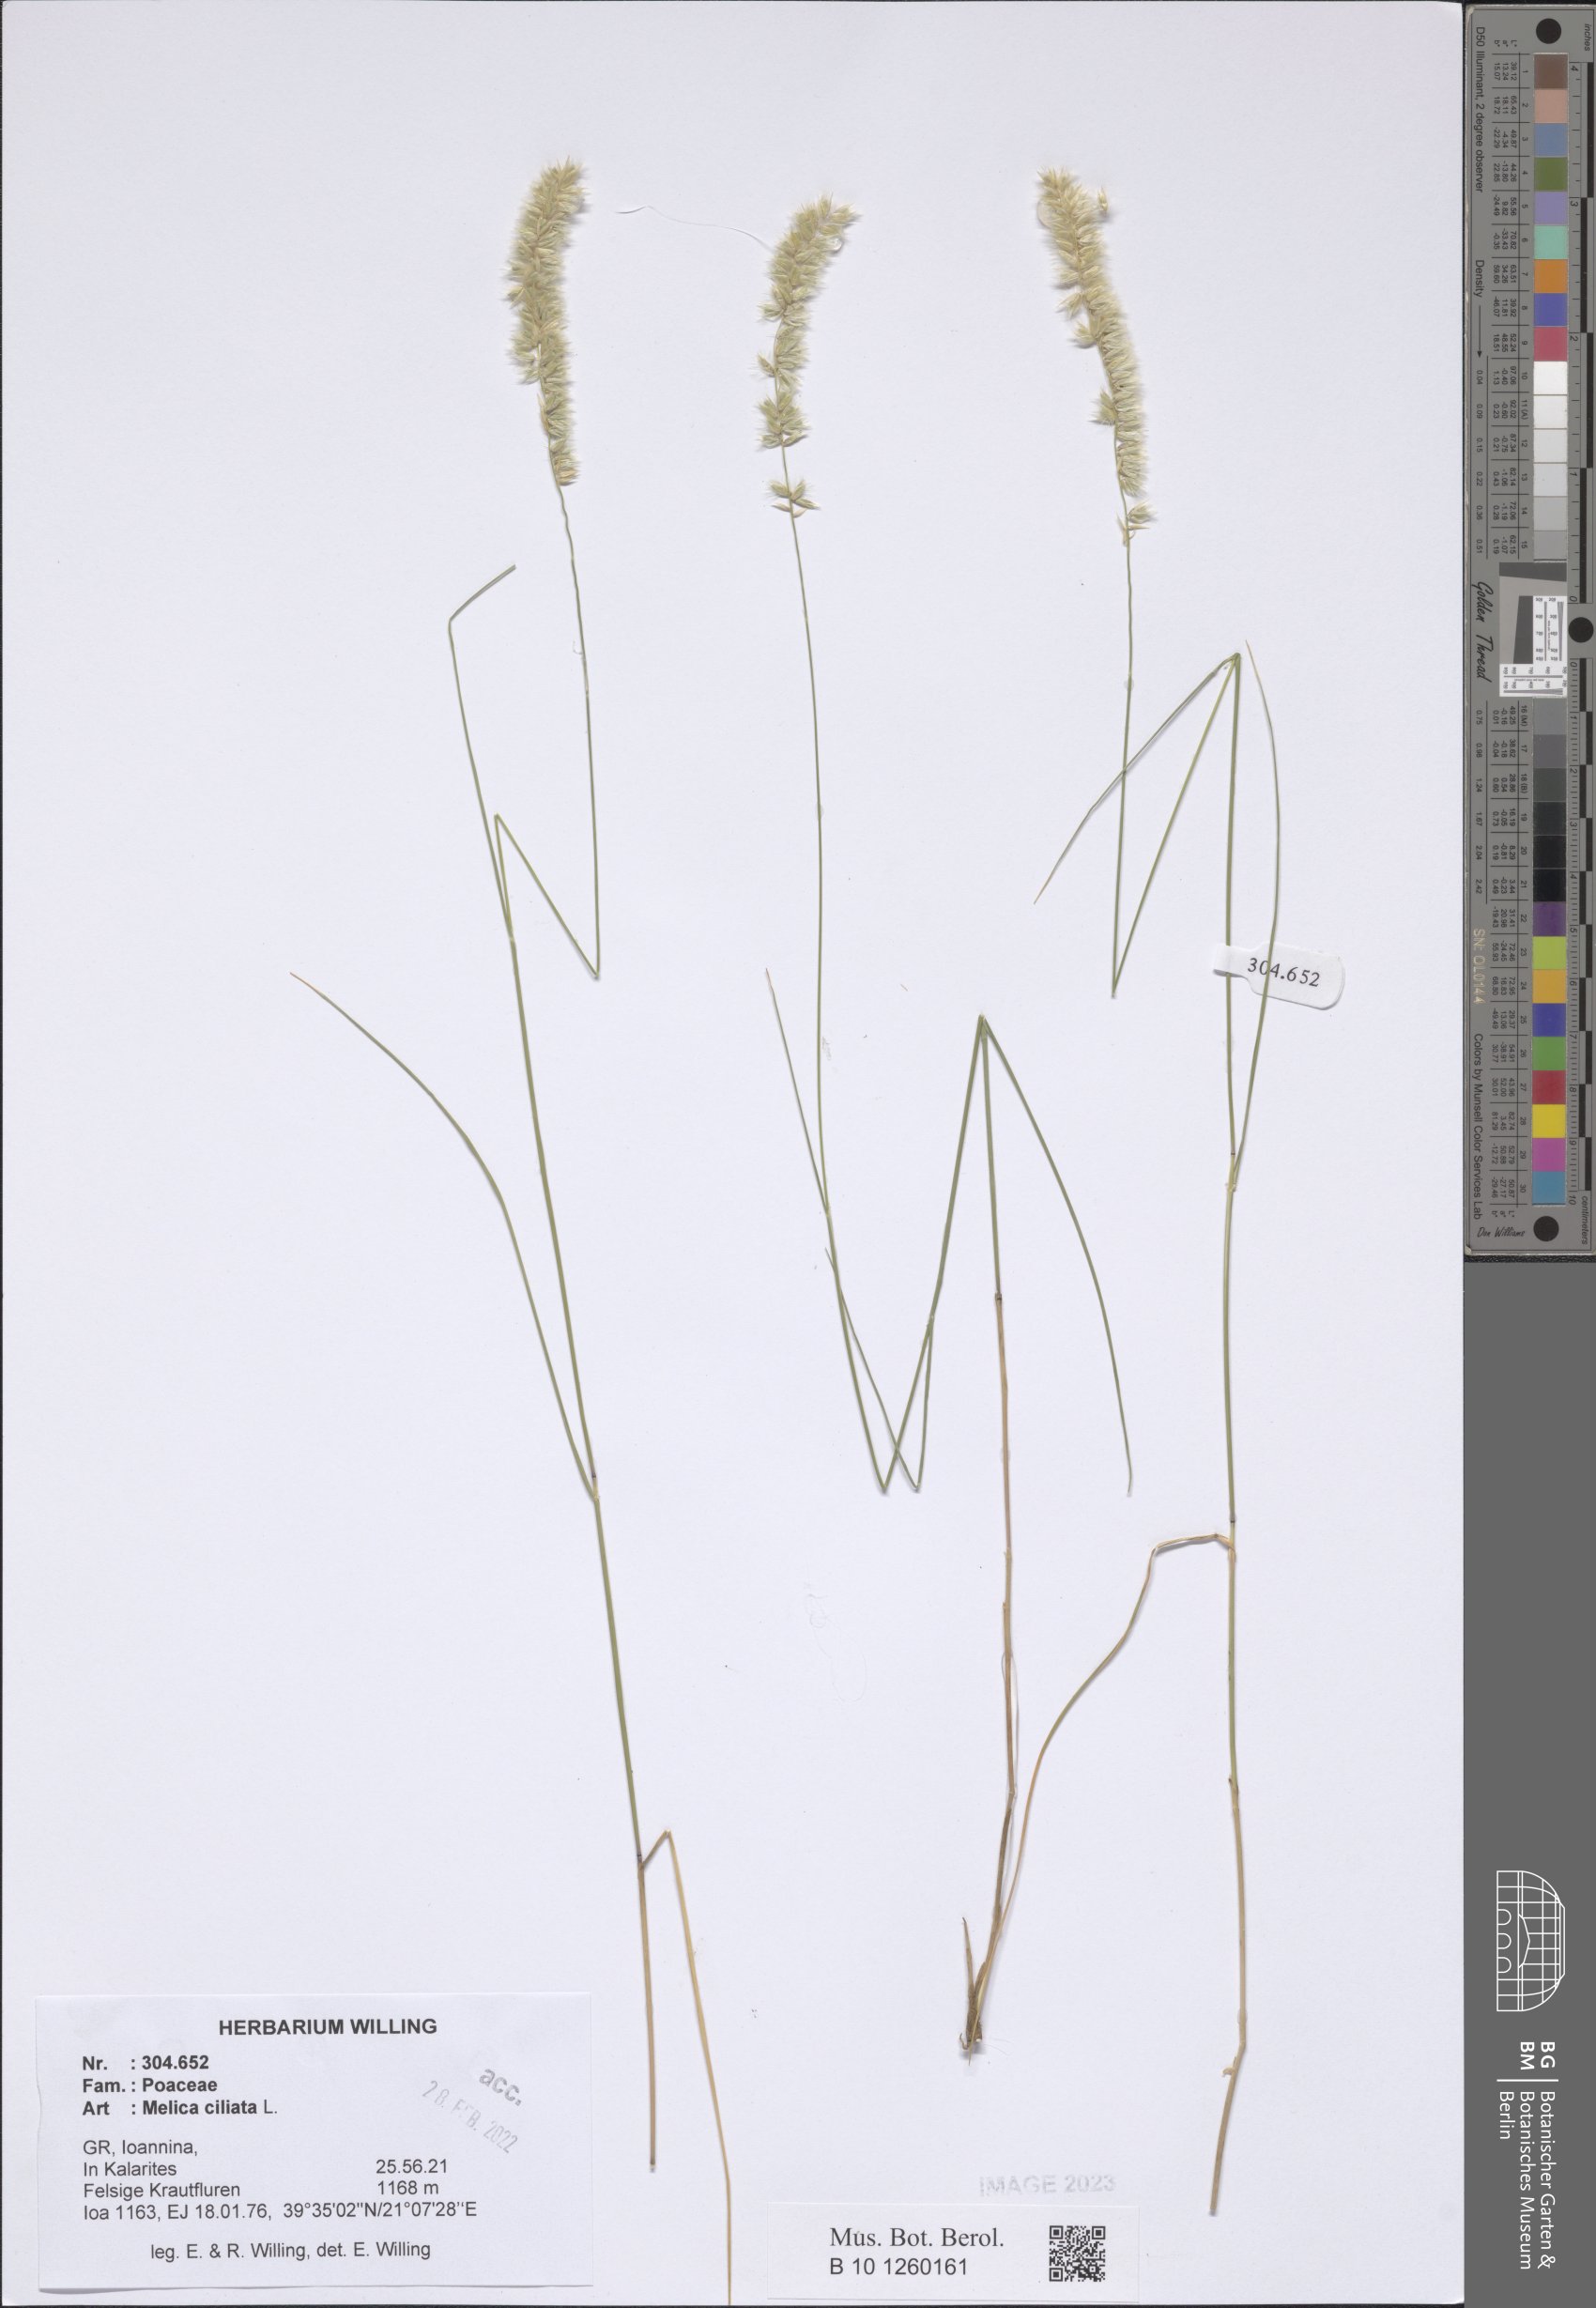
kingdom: Plantae
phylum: Tracheophyta
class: Liliopsida
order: Poales
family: Poaceae
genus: Melica
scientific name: Melica ciliata
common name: Hairy melicgrass
